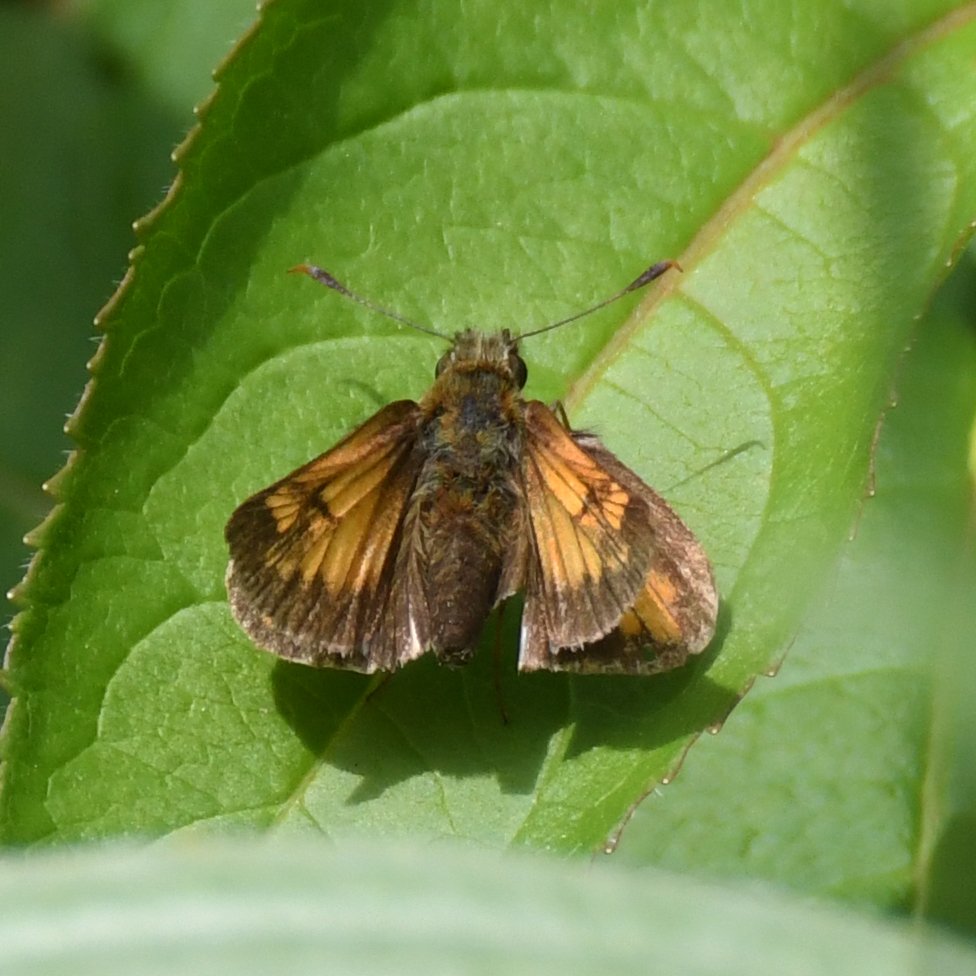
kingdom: Animalia
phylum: Arthropoda
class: Insecta
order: Lepidoptera
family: Hesperiidae
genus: Lon
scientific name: Lon hobomok
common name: Hobomok Skipper
